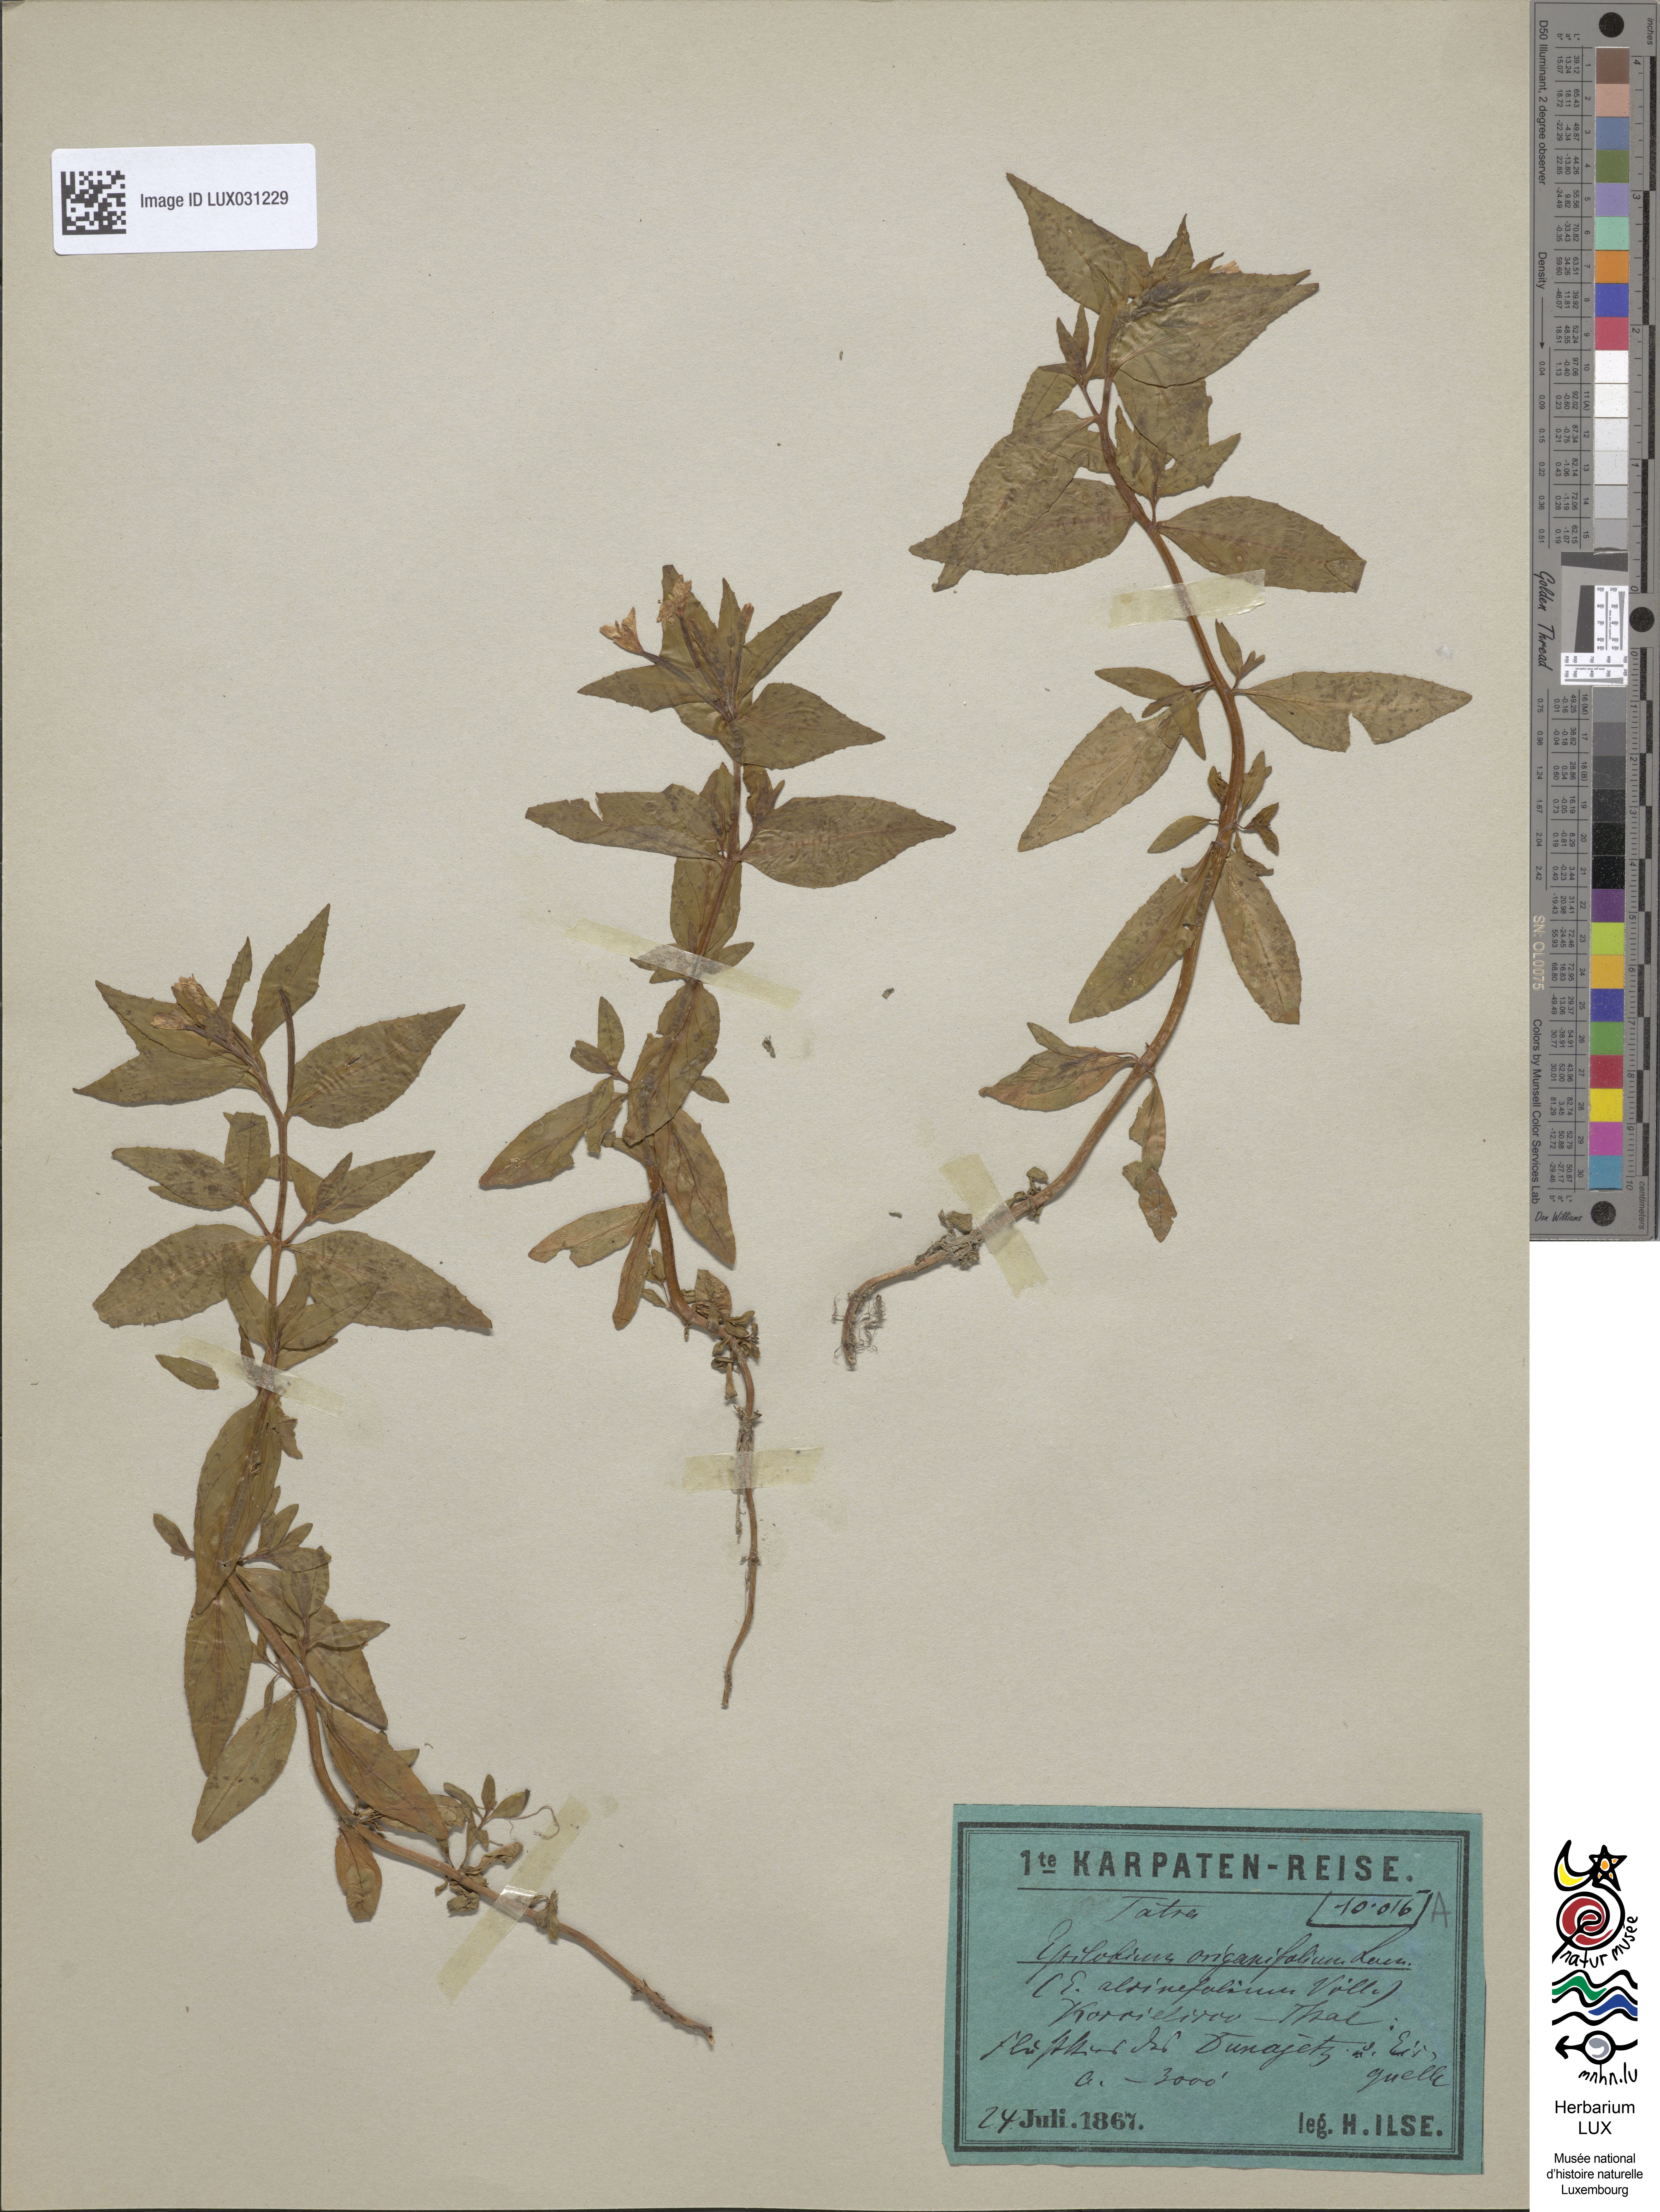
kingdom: Plantae
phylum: Tracheophyta
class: Magnoliopsida
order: Myrtales
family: Onagraceae
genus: Epilobium
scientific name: Epilobium alsinifolium
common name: Chickweed willowherb
